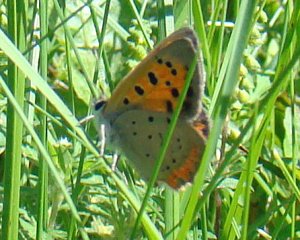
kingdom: Animalia
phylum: Arthropoda
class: Insecta
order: Lepidoptera
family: Lycaenidae
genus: Lycaena
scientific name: Lycaena phlaeas
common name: American Copper
